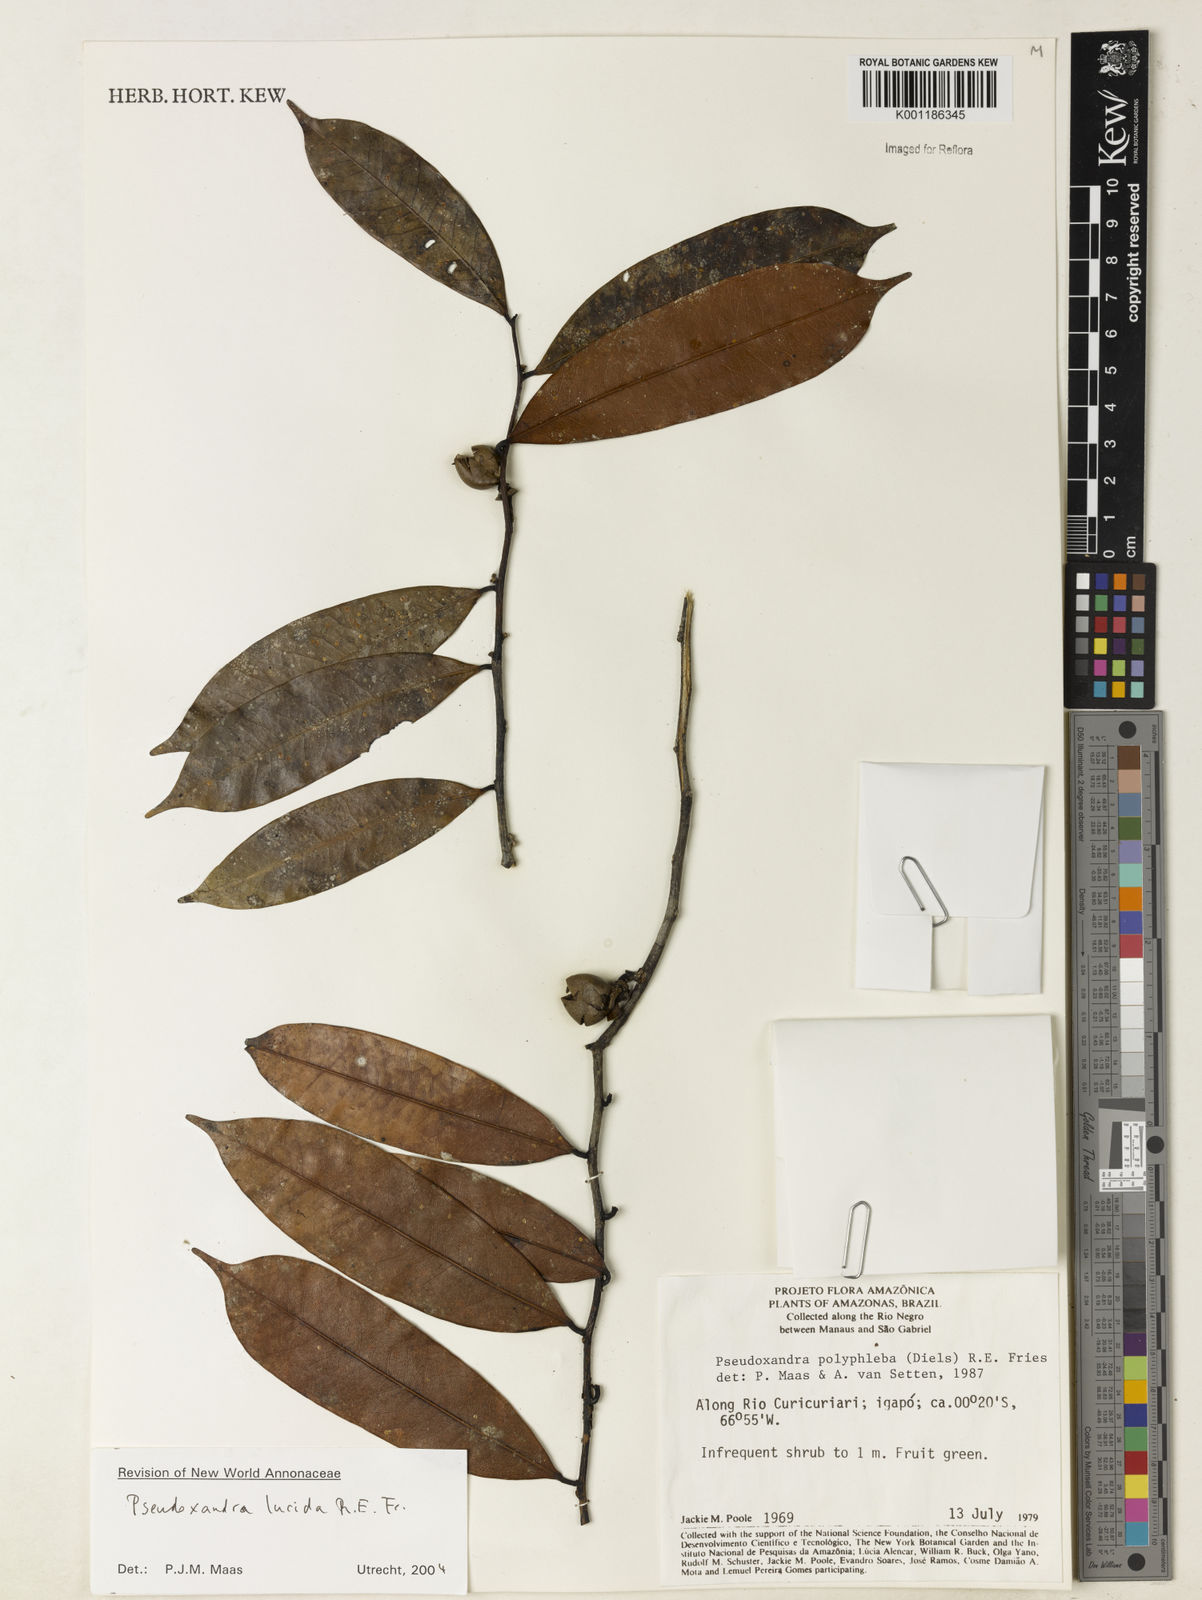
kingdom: Plantae
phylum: Tracheophyta
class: Magnoliopsida
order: Magnoliales
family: Annonaceae
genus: Pseudoxandra
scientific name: Pseudoxandra lucida
